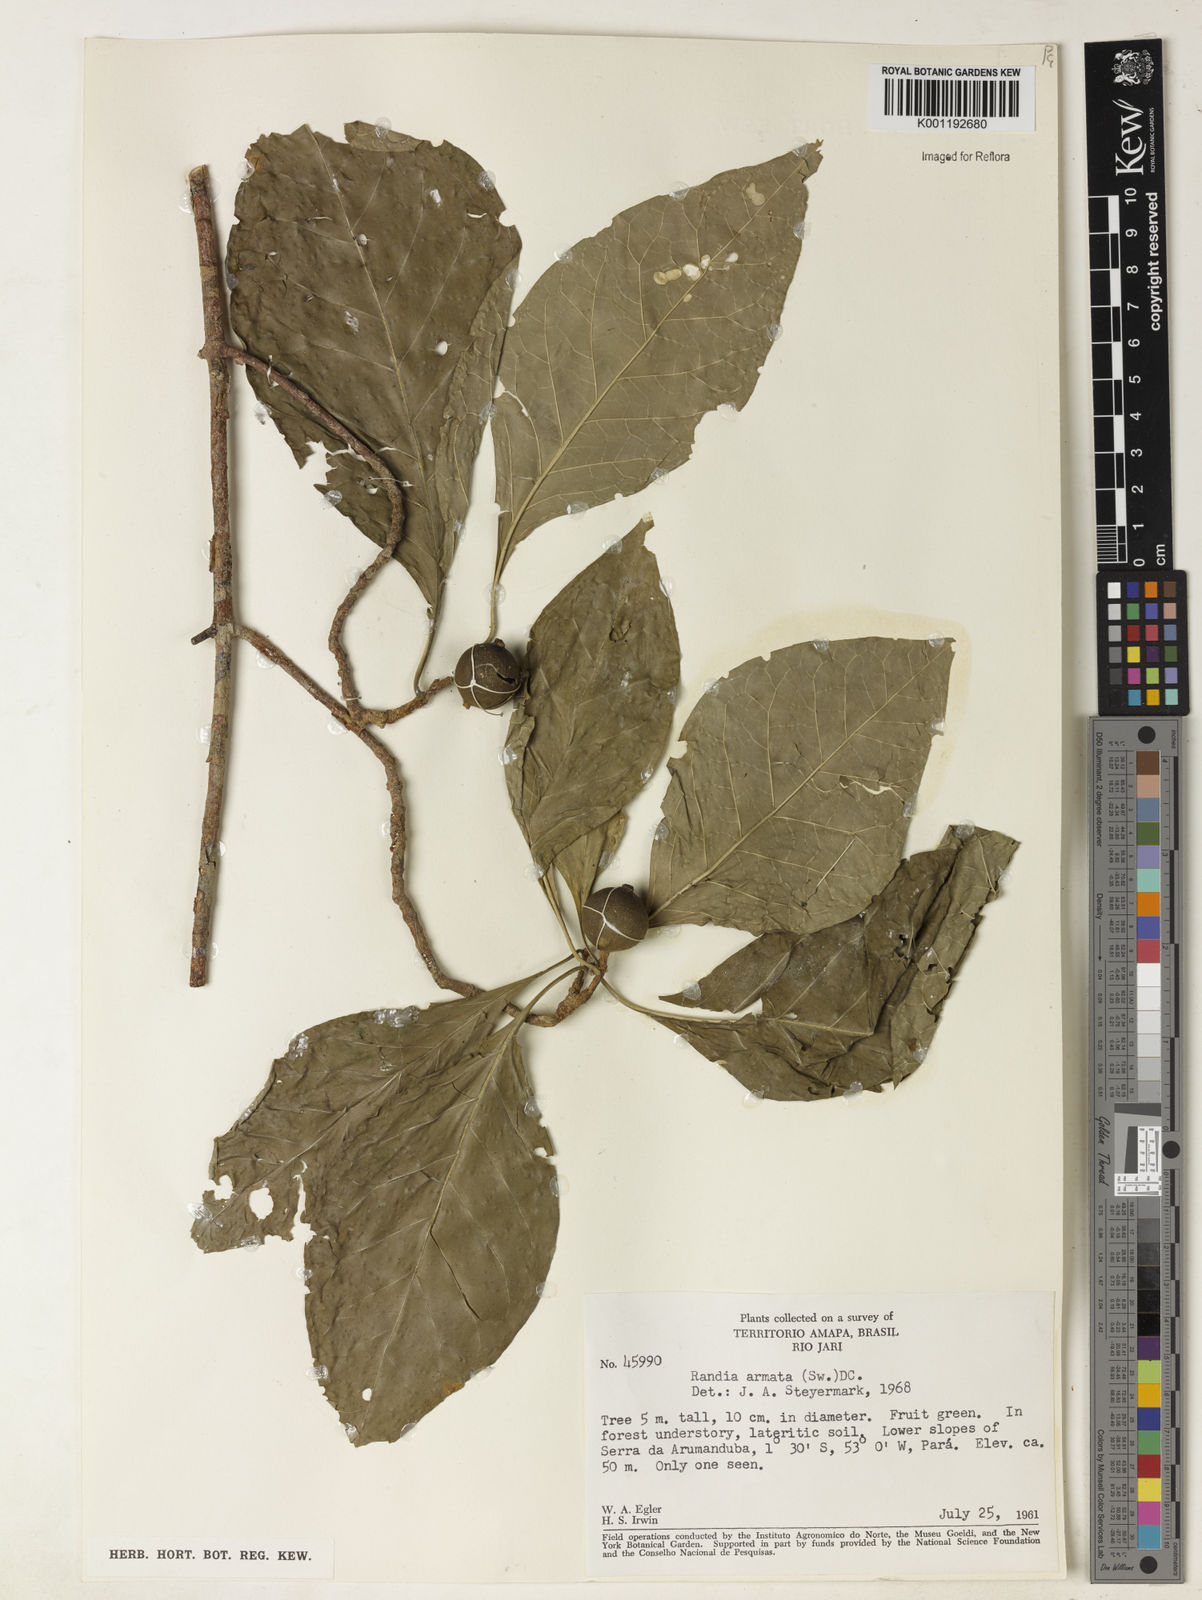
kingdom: Plantae
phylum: Tracheophyta
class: Magnoliopsida
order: Gentianales
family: Rubiaceae
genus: Randia
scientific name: Randia armata
